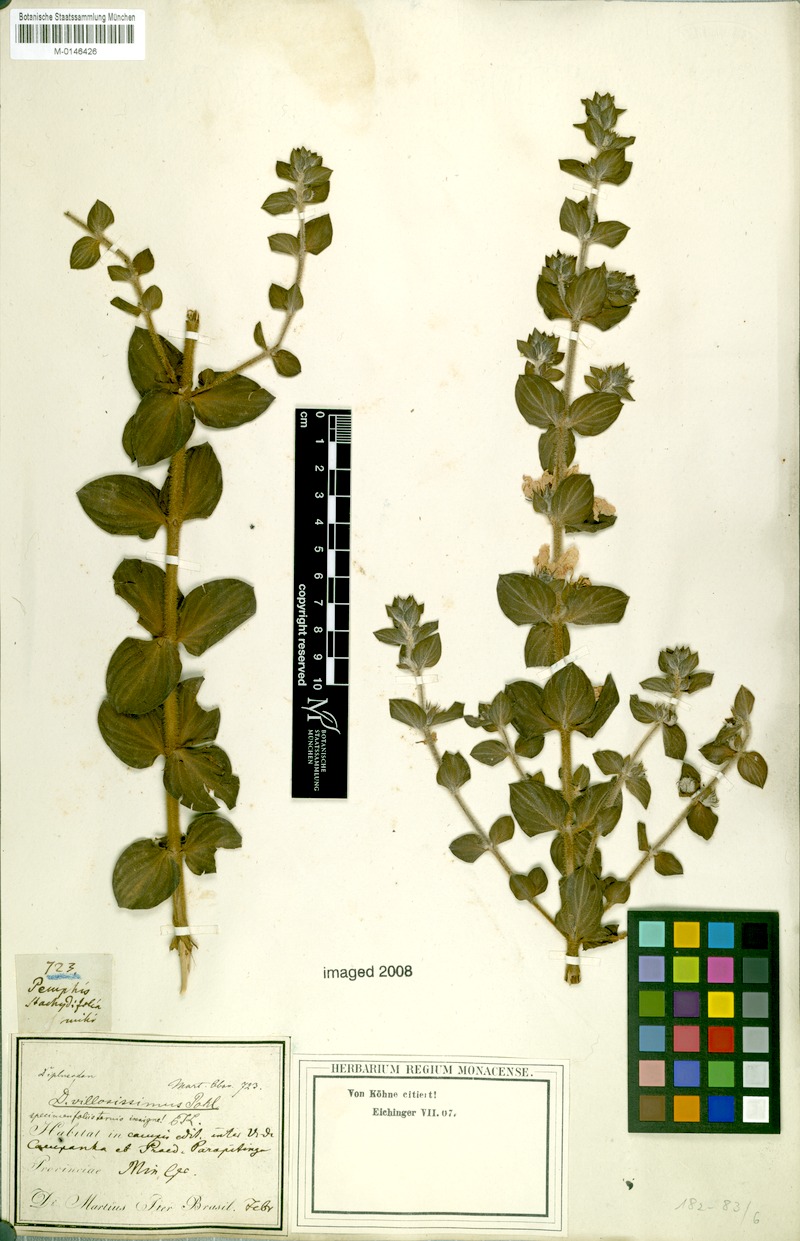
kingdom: Plantae
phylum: Tracheophyta
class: Magnoliopsida
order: Myrtales
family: Lythraceae
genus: Diplusodon
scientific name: Diplusodon villosissimus
